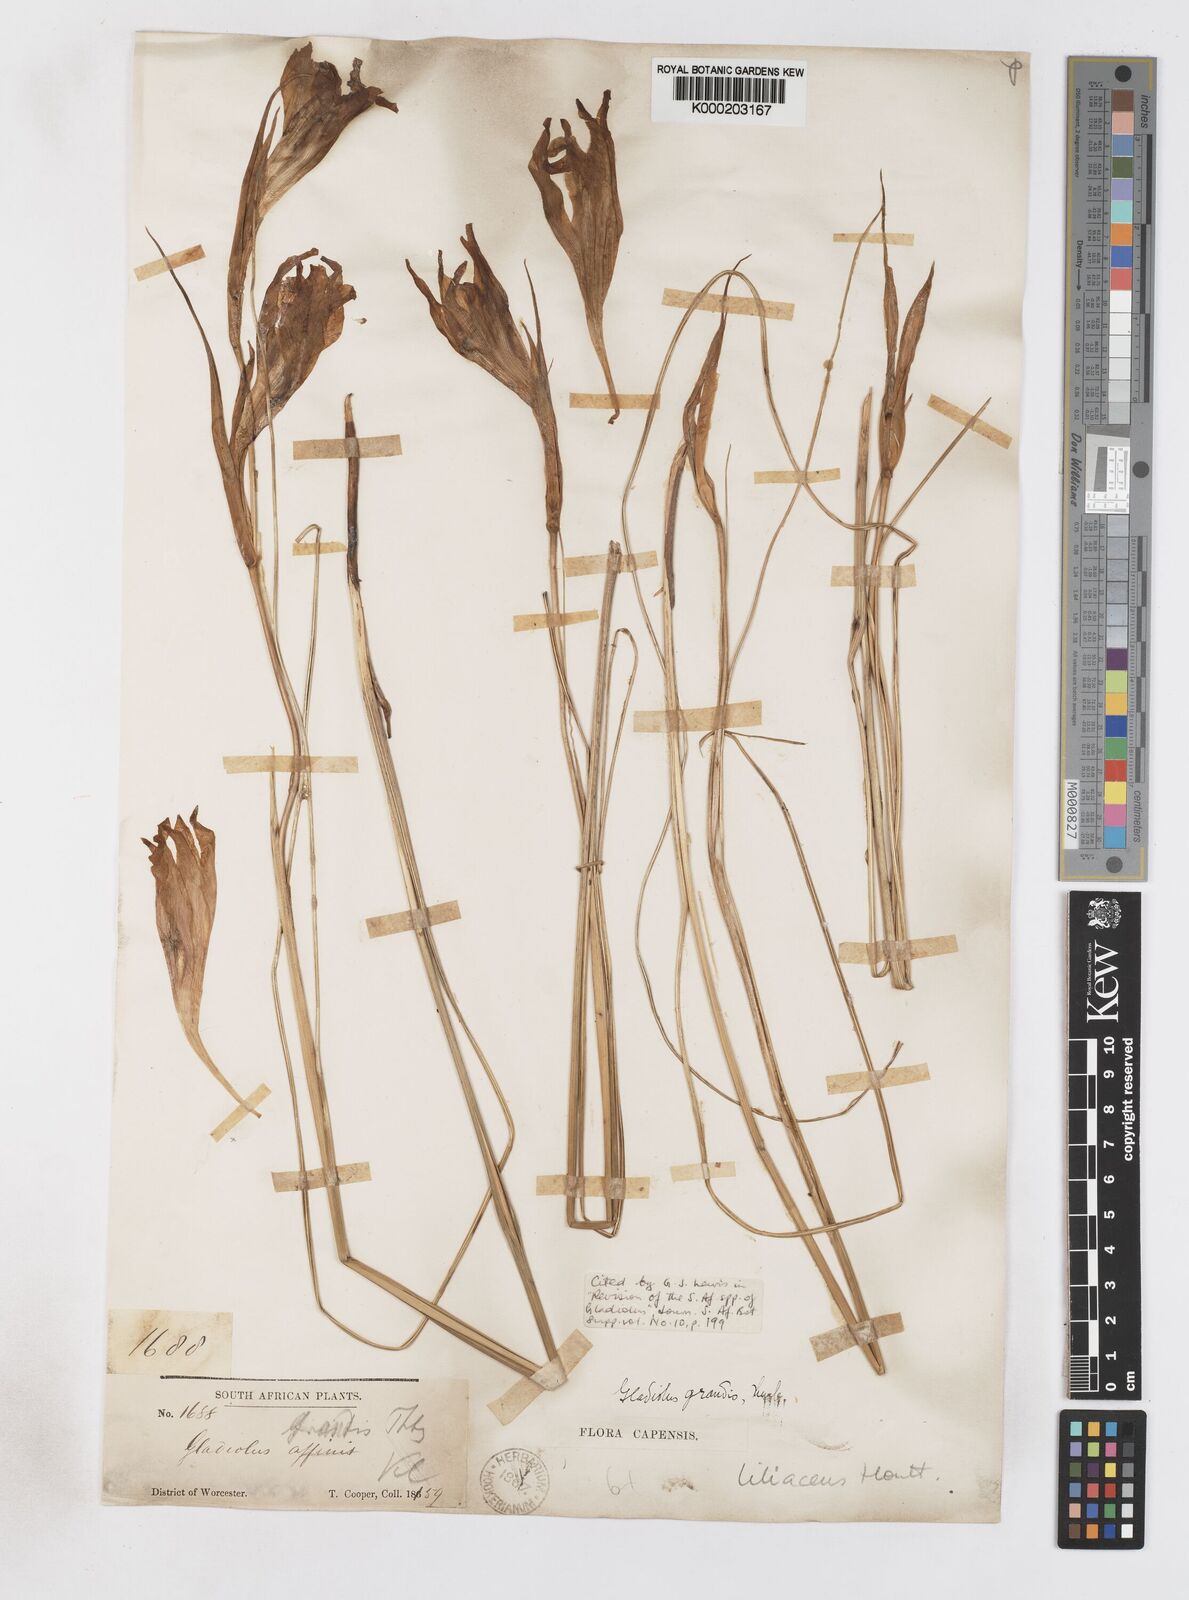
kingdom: Plantae
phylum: Tracheophyta
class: Liliopsida
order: Asparagales
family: Iridaceae
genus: Gladiolus
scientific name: Gladiolus liliaceus
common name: Large brown afrikaner
